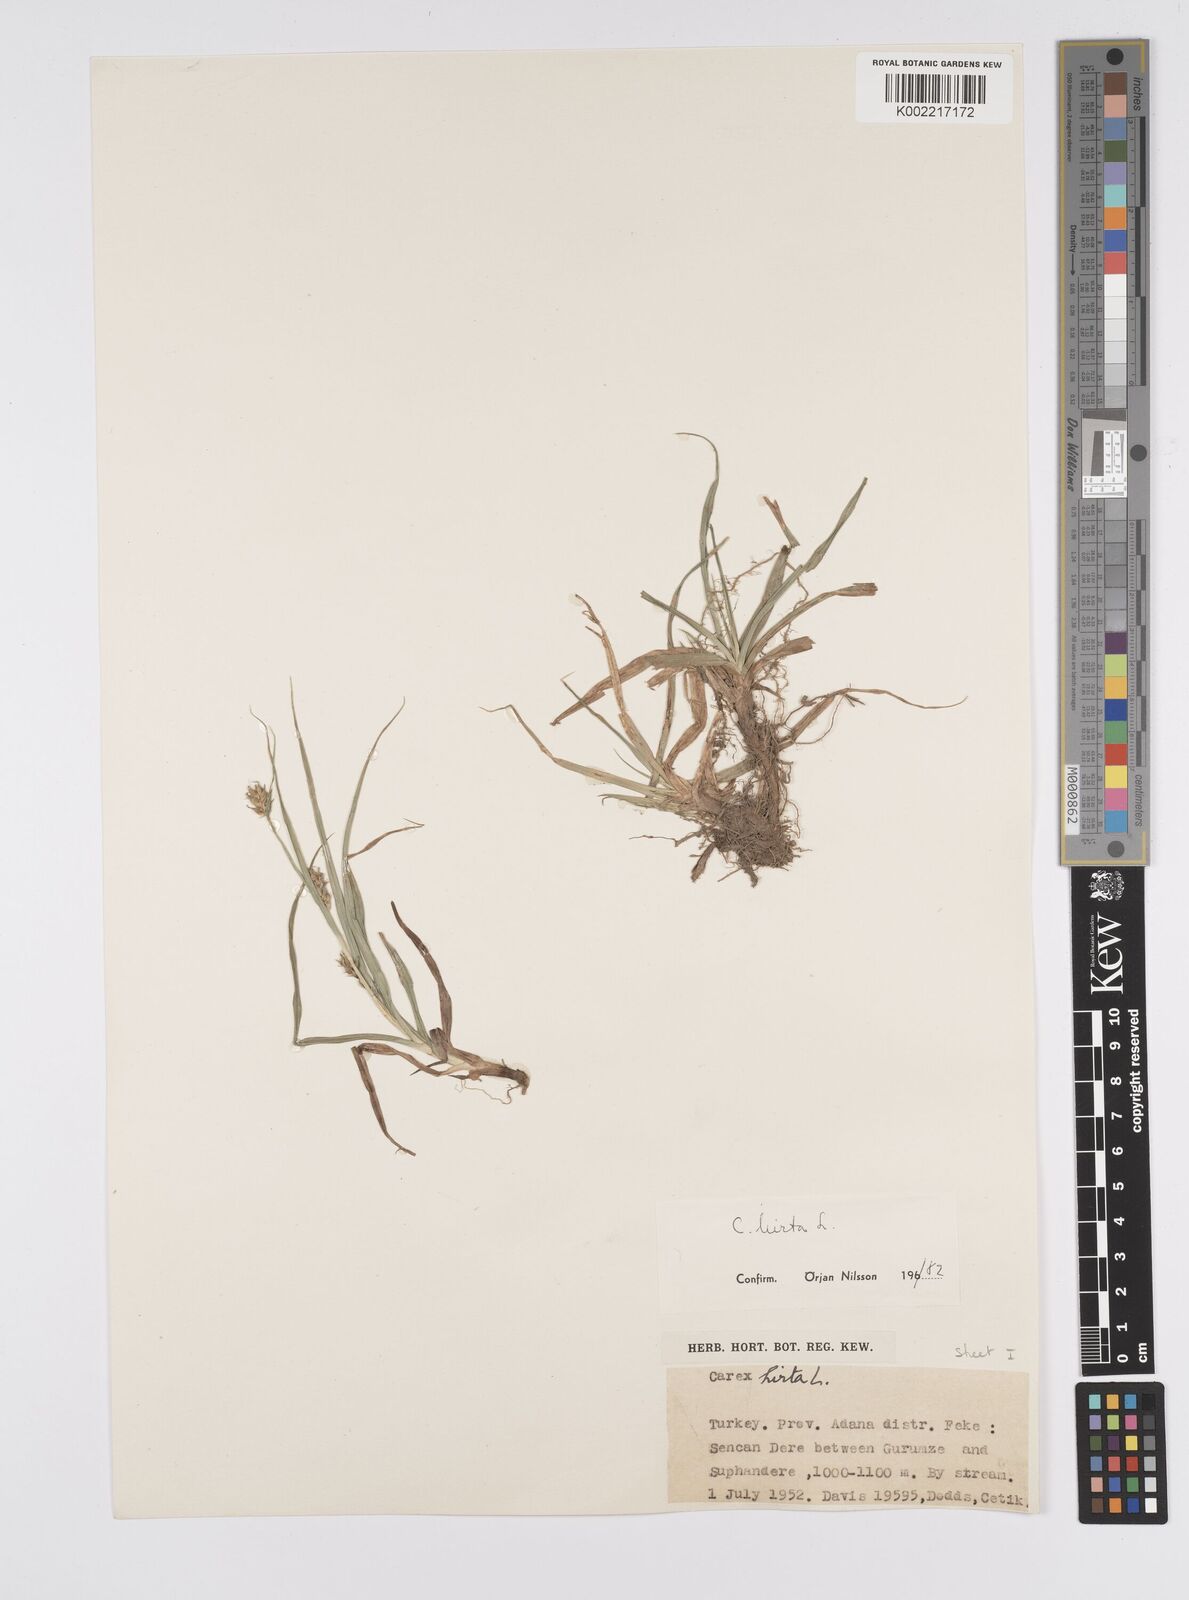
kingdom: Plantae
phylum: Tracheophyta
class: Liliopsida
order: Poales
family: Cyperaceae
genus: Carex
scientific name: Carex hirta
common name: Hairy sedge
